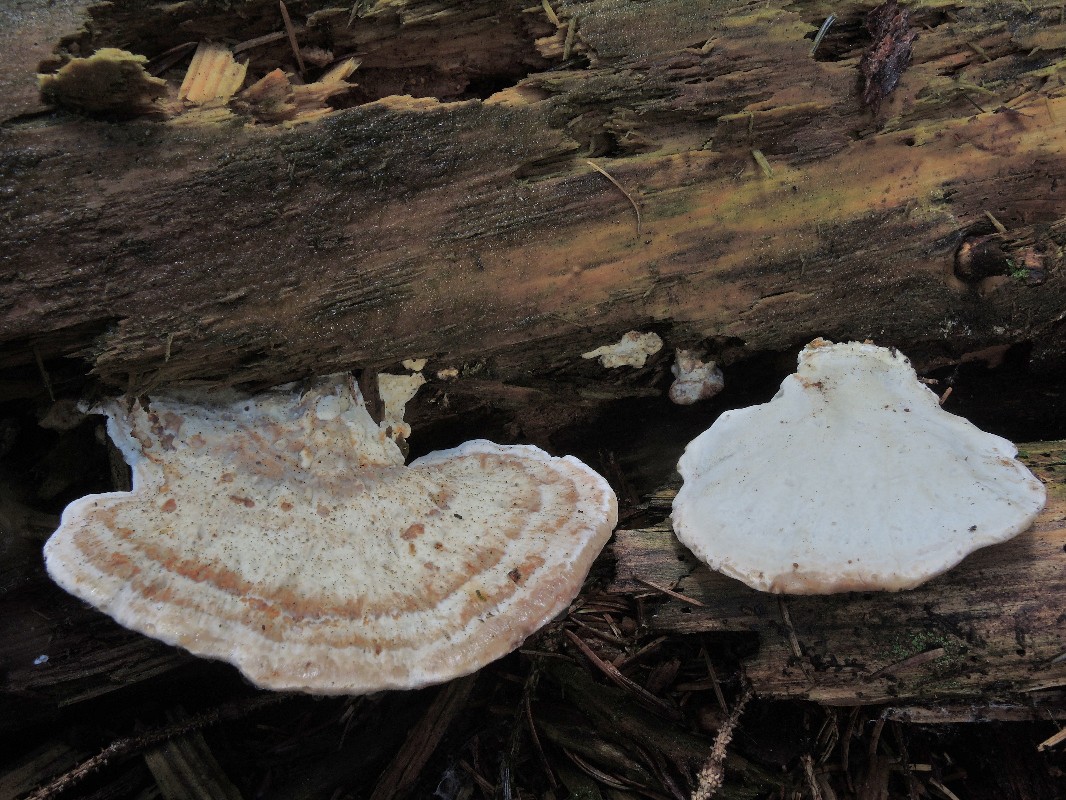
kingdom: Fungi
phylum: Basidiomycota
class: Agaricomycetes
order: Polyporales
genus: Calcipostia
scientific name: Calcipostia guttulata
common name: dråbe-kødporesvamp
